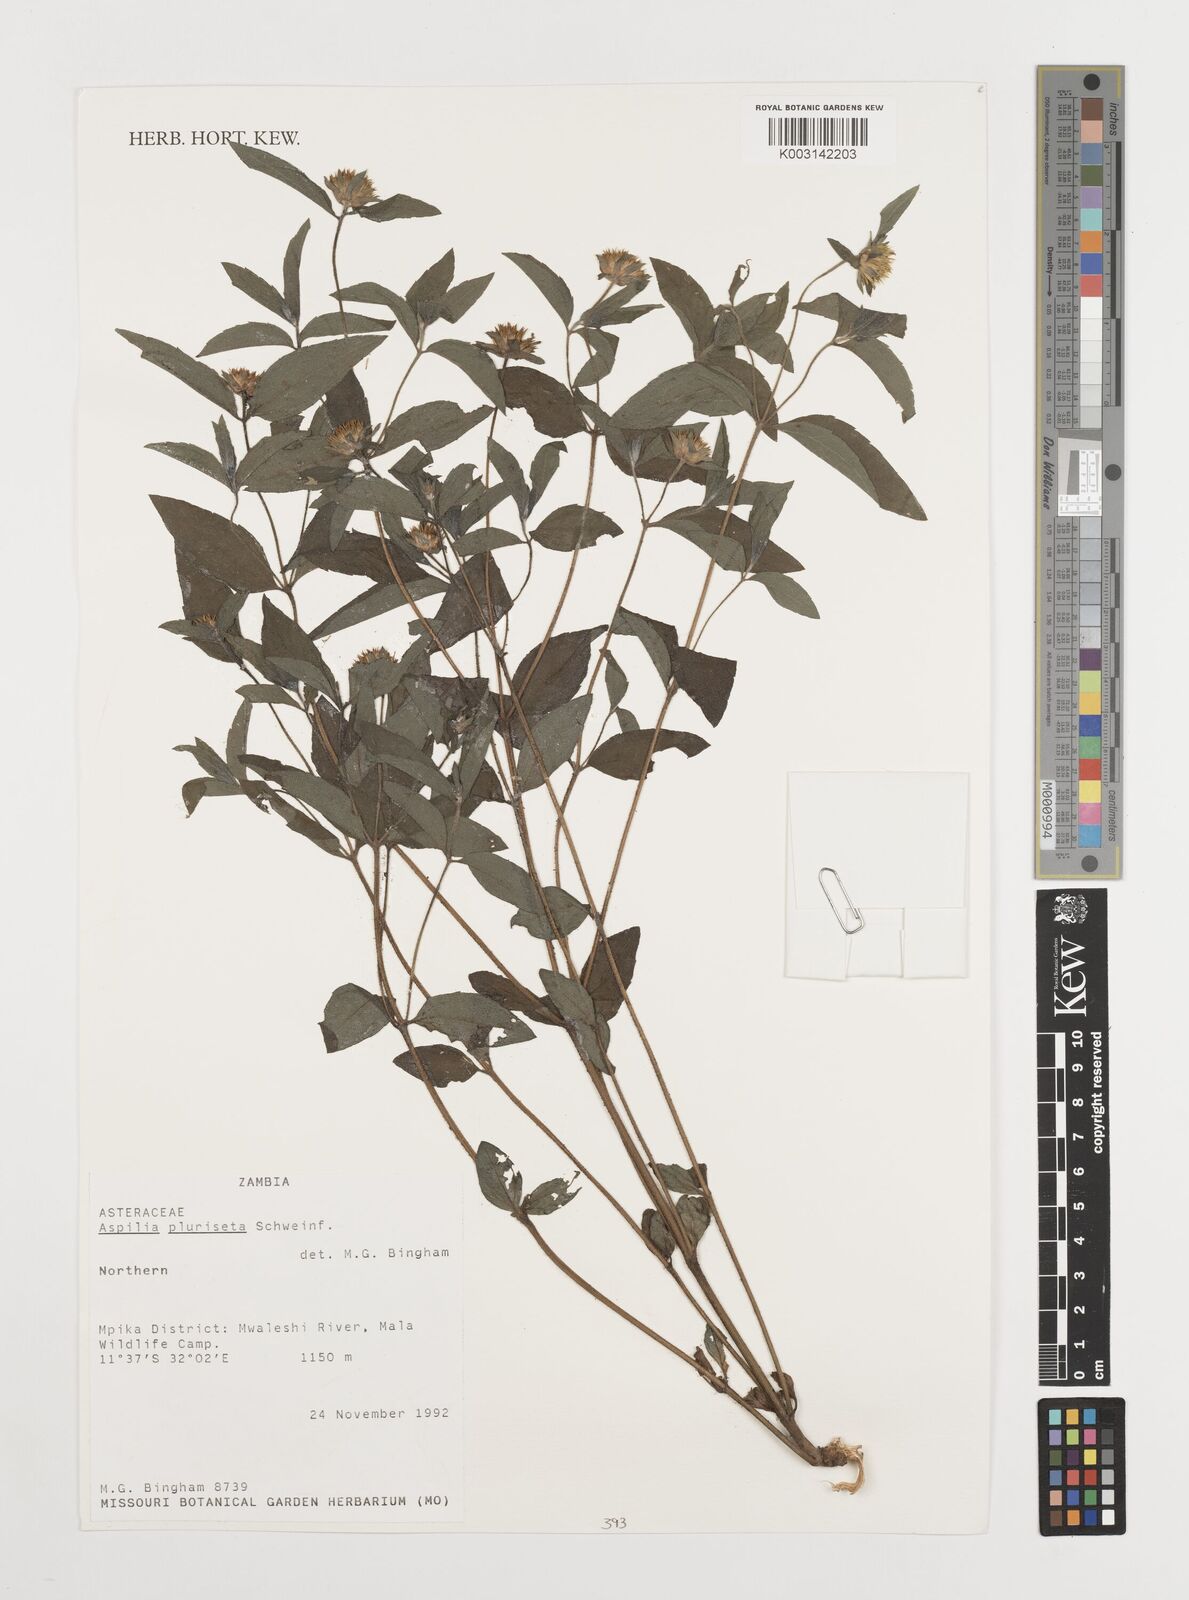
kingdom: Plantae
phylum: Tracheophyta
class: Magnoliopsida
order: Asterales
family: Asteraceae
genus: Aspilia
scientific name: Aspilia pluriseta
